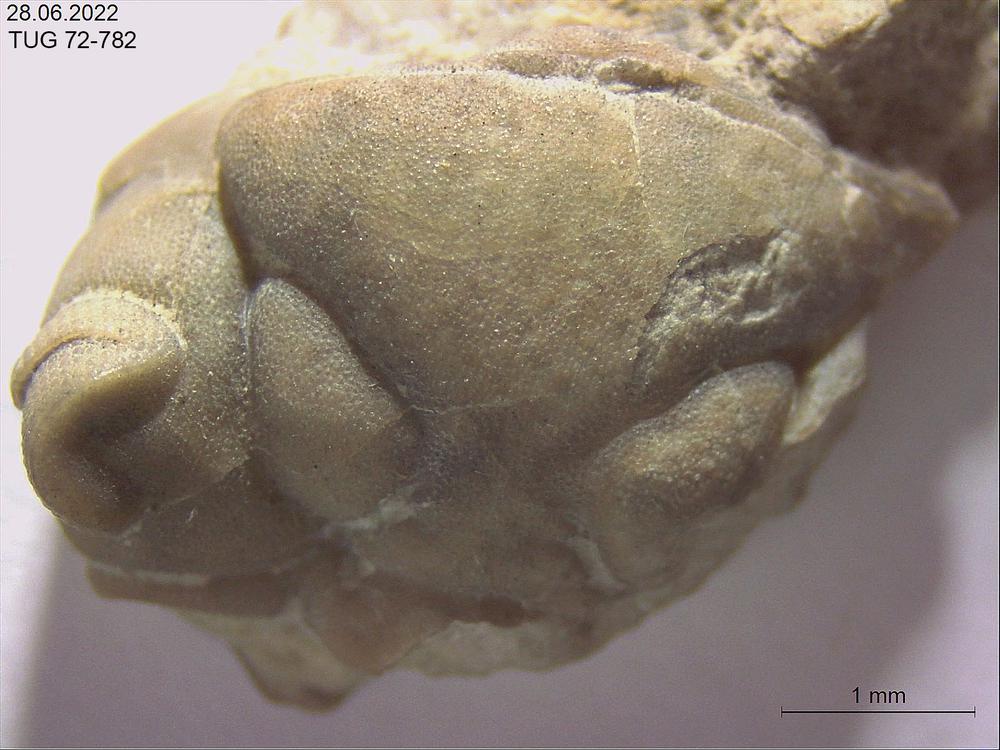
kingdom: Animalia
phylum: Arthropoda
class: Trilobita
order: Phacopida
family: Pterygometopidae
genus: Toxochasmops
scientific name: Toxochasmops inge
